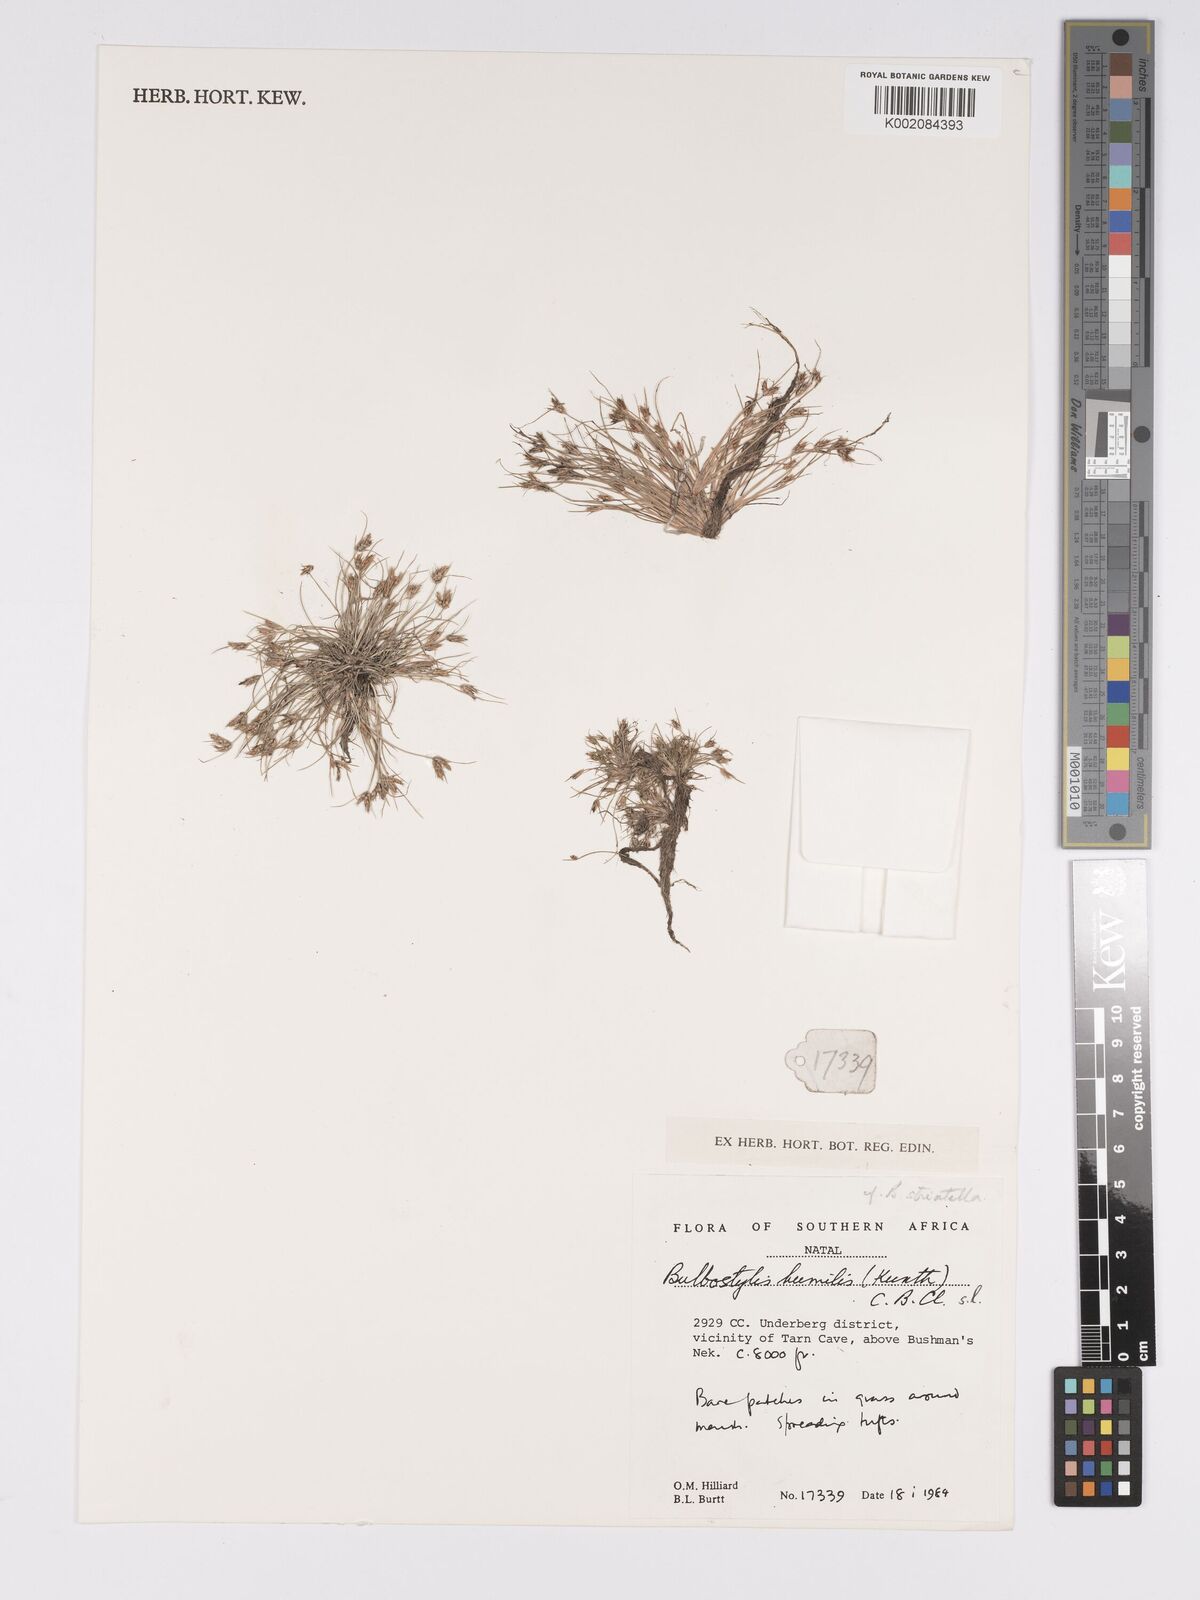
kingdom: Plantae
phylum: Tracheophyta
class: Liliopsida
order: Poales
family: Cyperaceae
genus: Bulbostylis
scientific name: Bulbostylis humilis
